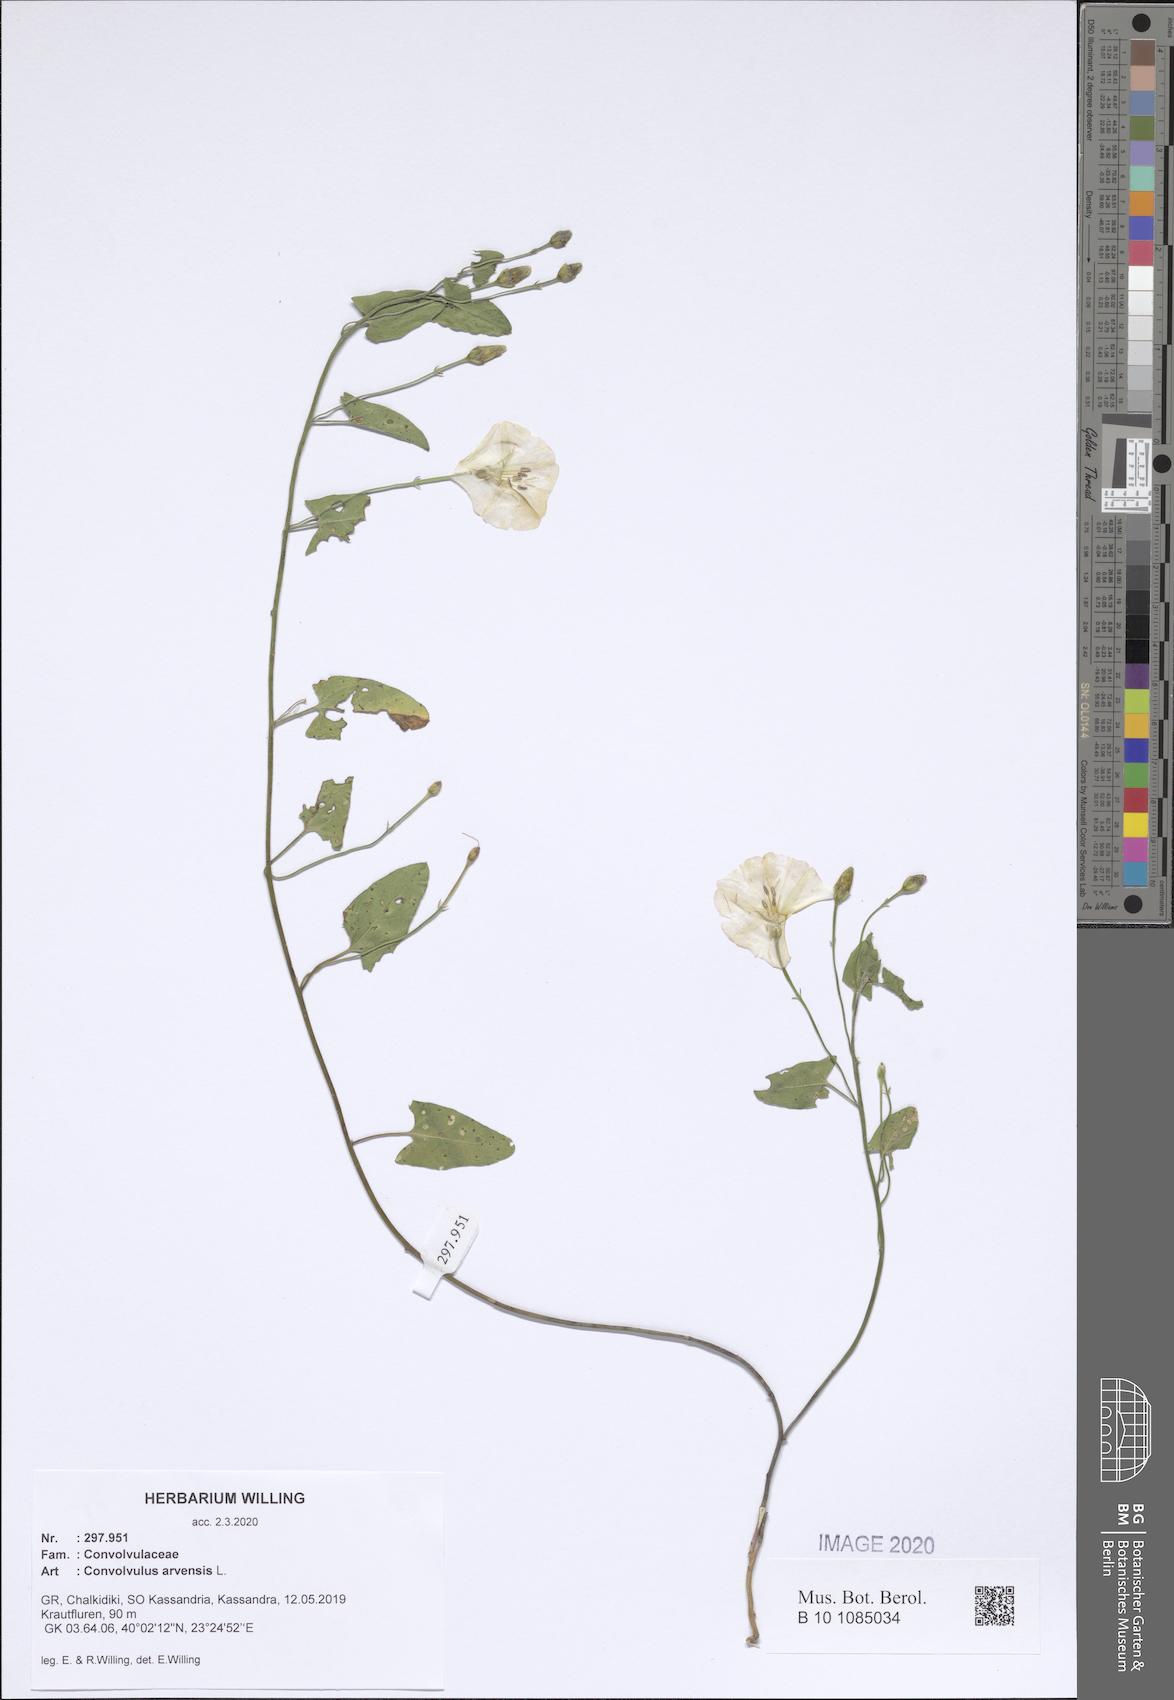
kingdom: Plantae
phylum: Tracheophyta
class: Magnoliopsida
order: Solanales
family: Convolvulaceae
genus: Convolvulus
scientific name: Convolvulus arvensis
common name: Field bindweed
